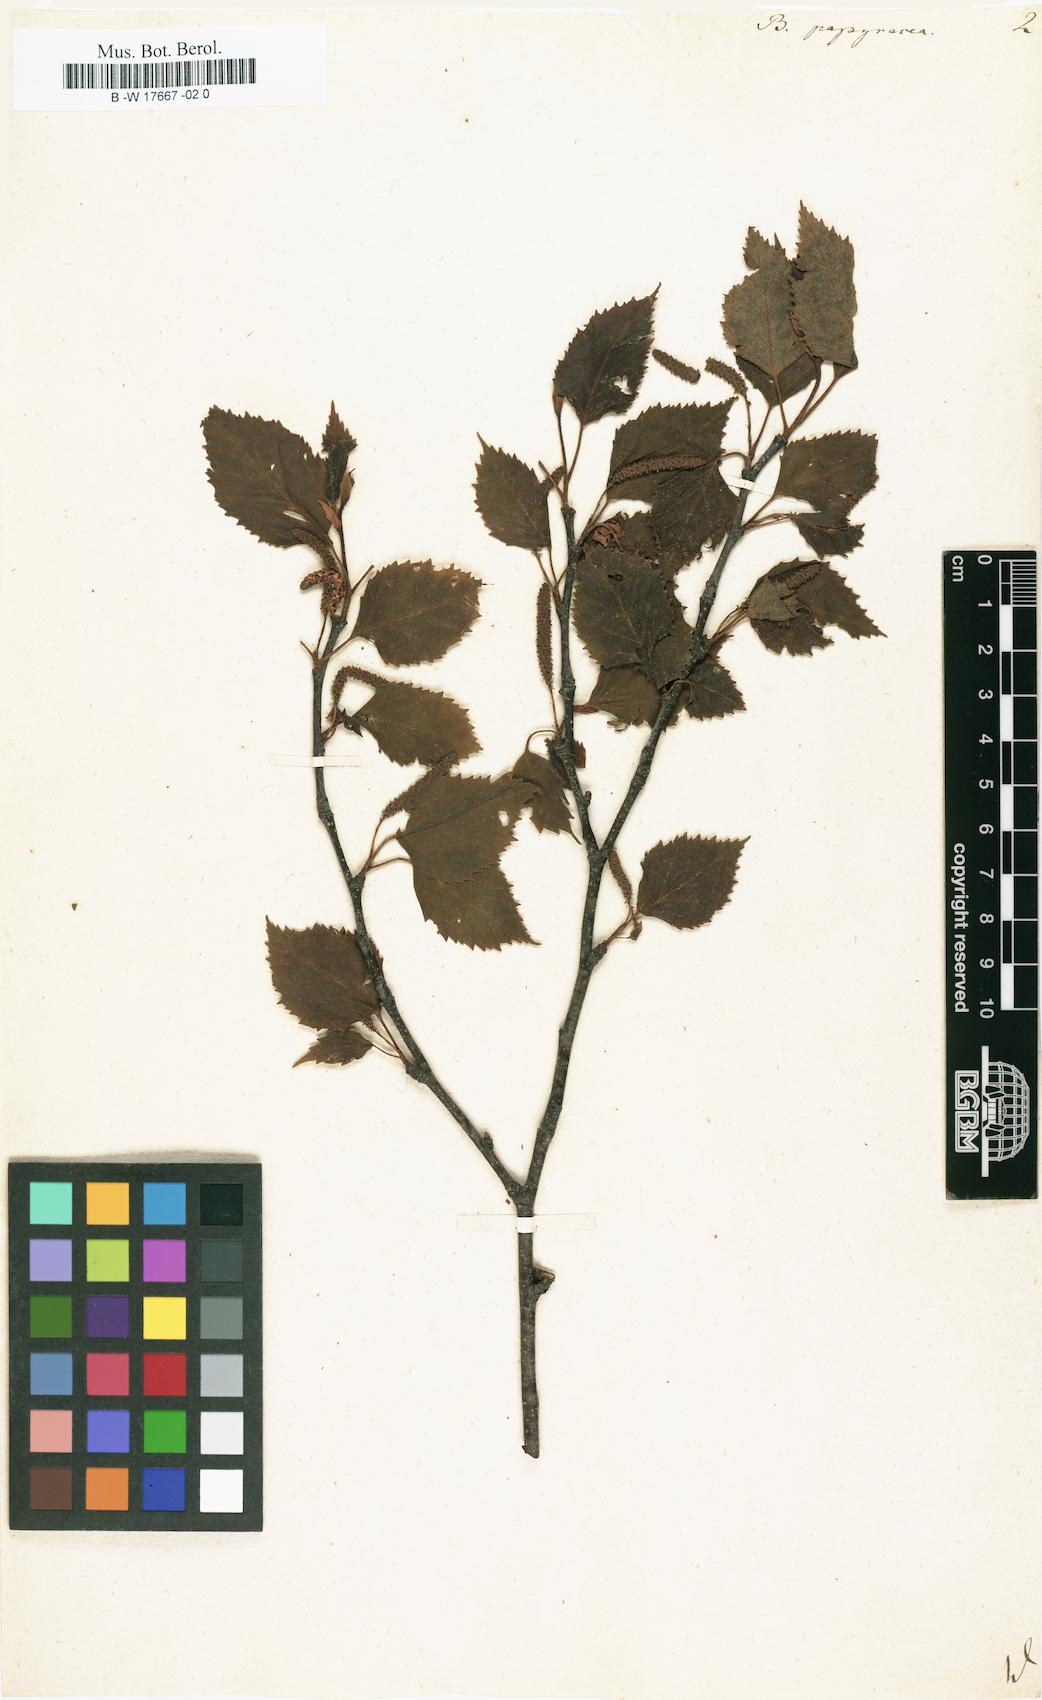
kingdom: Plantae
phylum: Tracheophyta
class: Magnoliopsida
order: Fagales
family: Betulaceae
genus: Betula
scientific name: Betula papyrifera
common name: Paper birch
